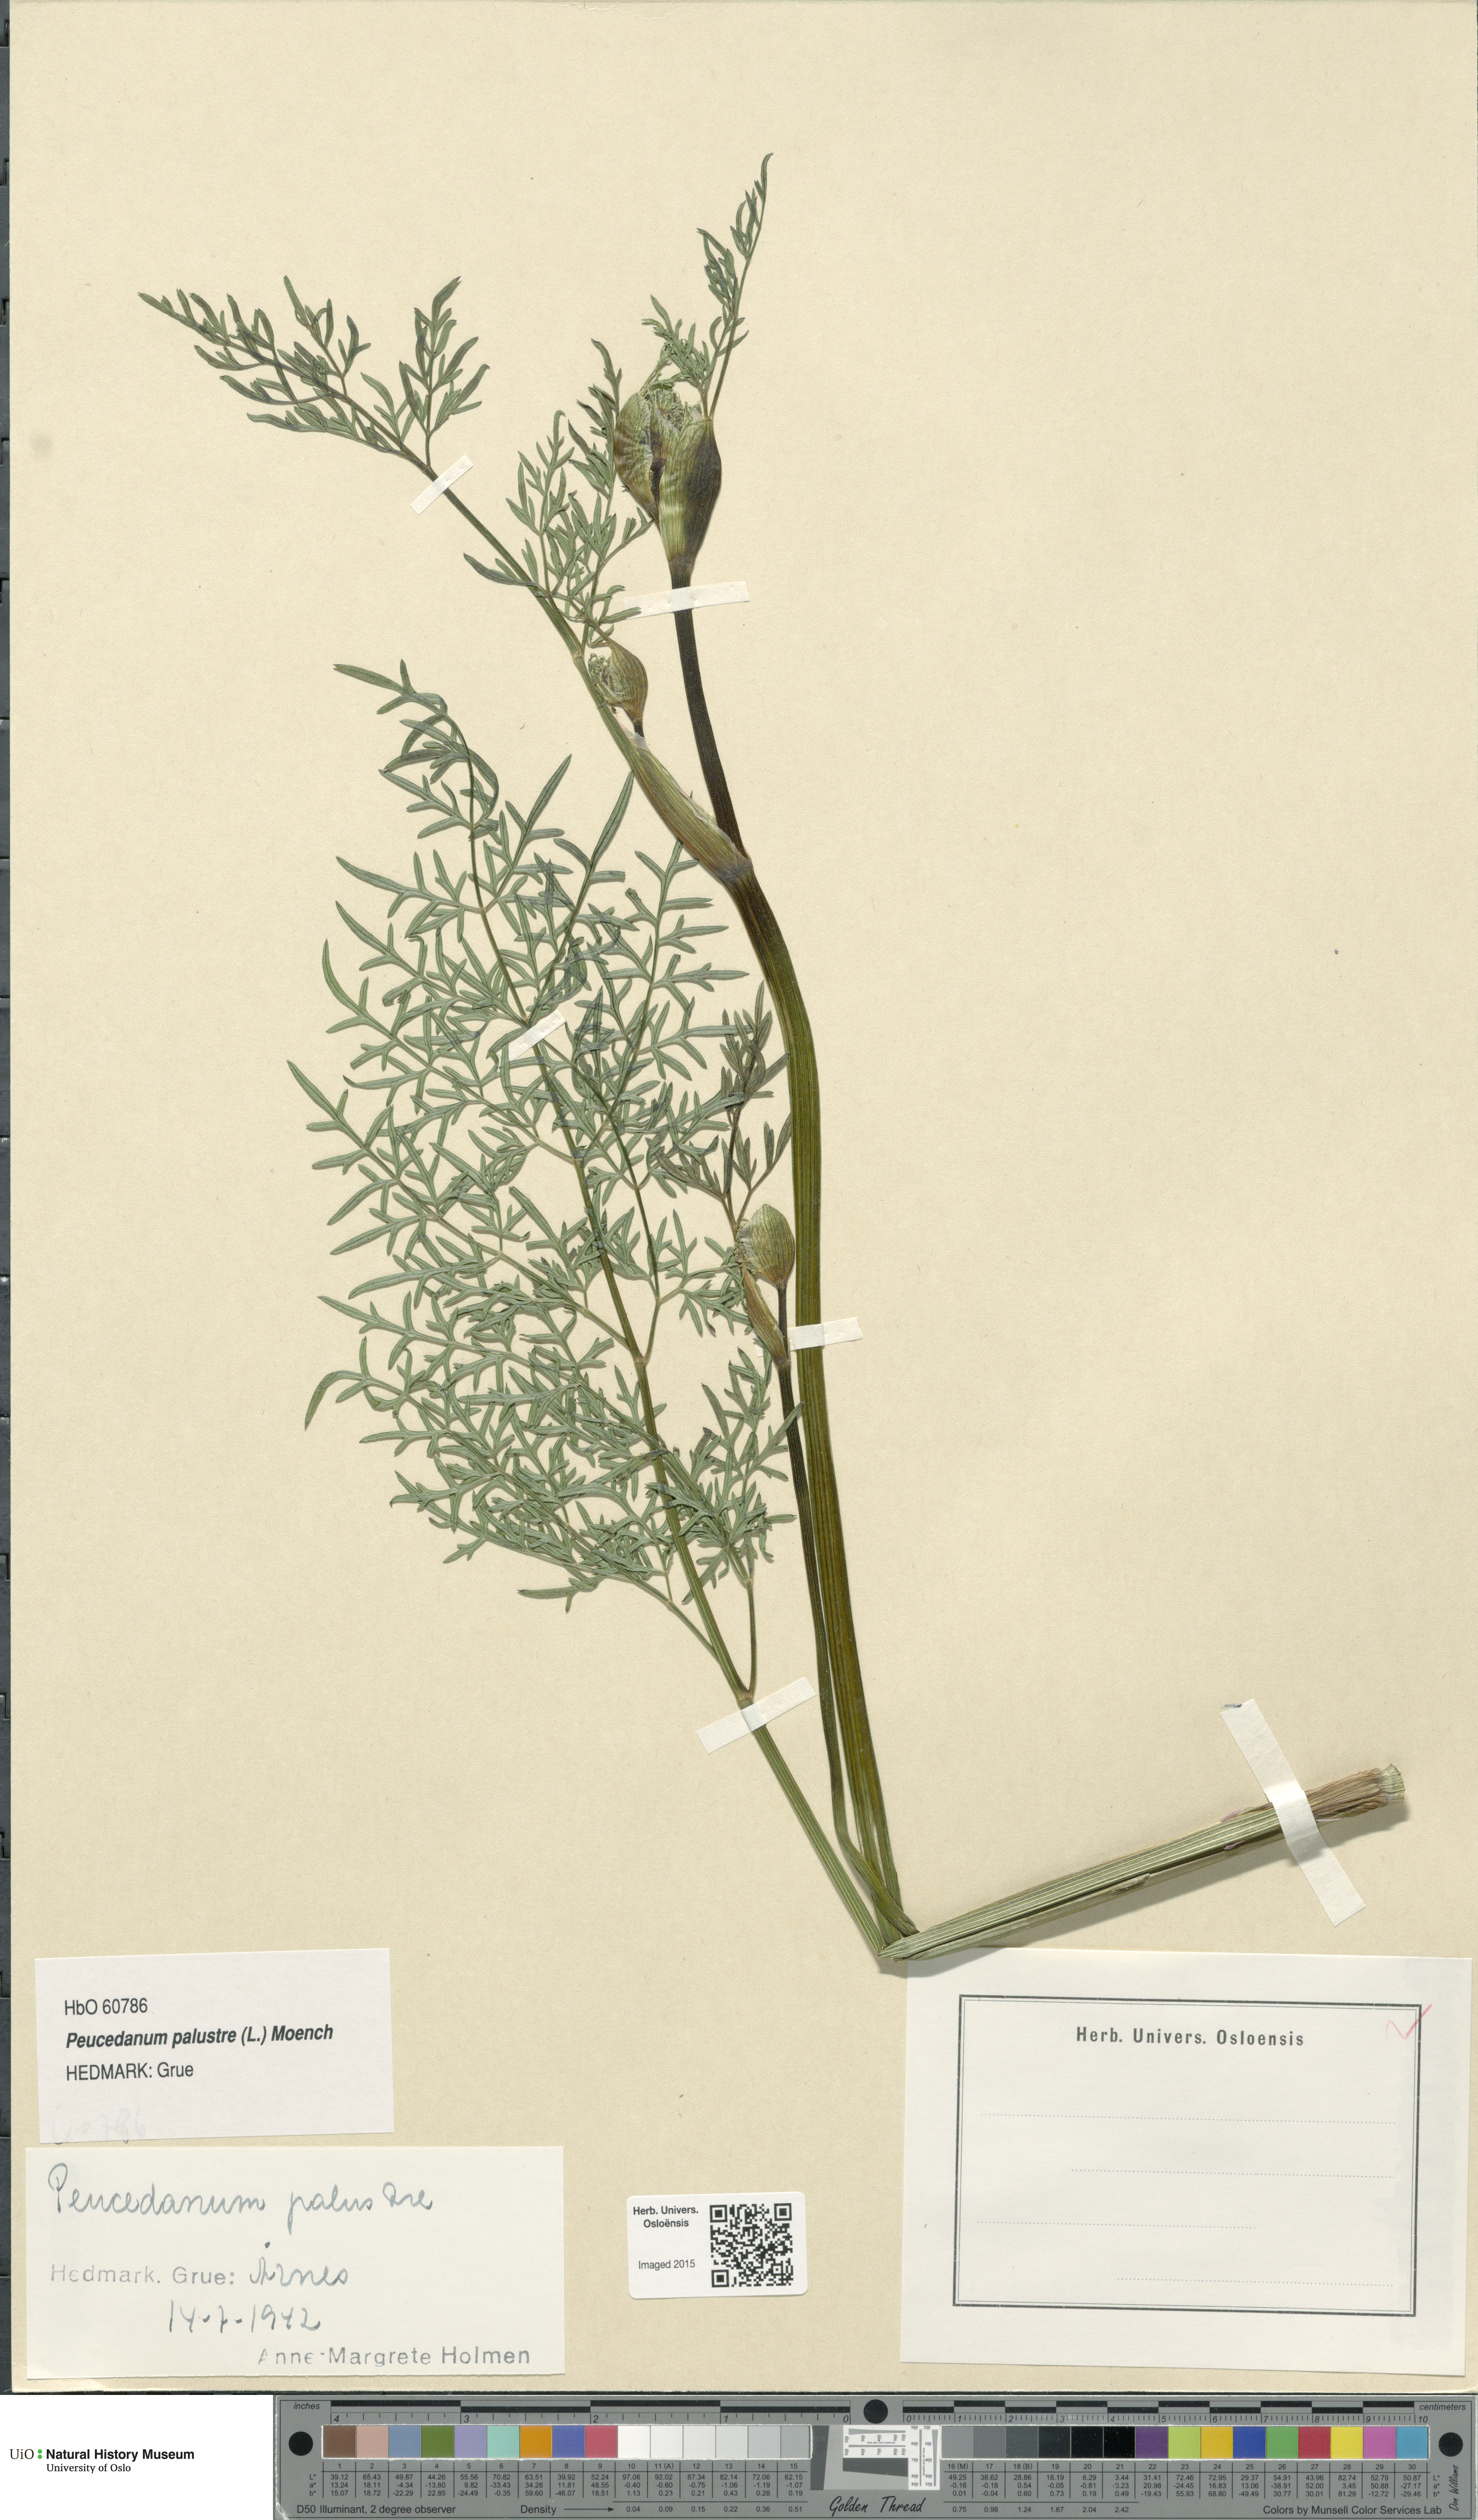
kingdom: Plantae
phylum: Tracheophyta
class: Magnoliopsida
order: Apiales
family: Apiaceae
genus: Thysselinum
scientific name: Thysselinum palustre
